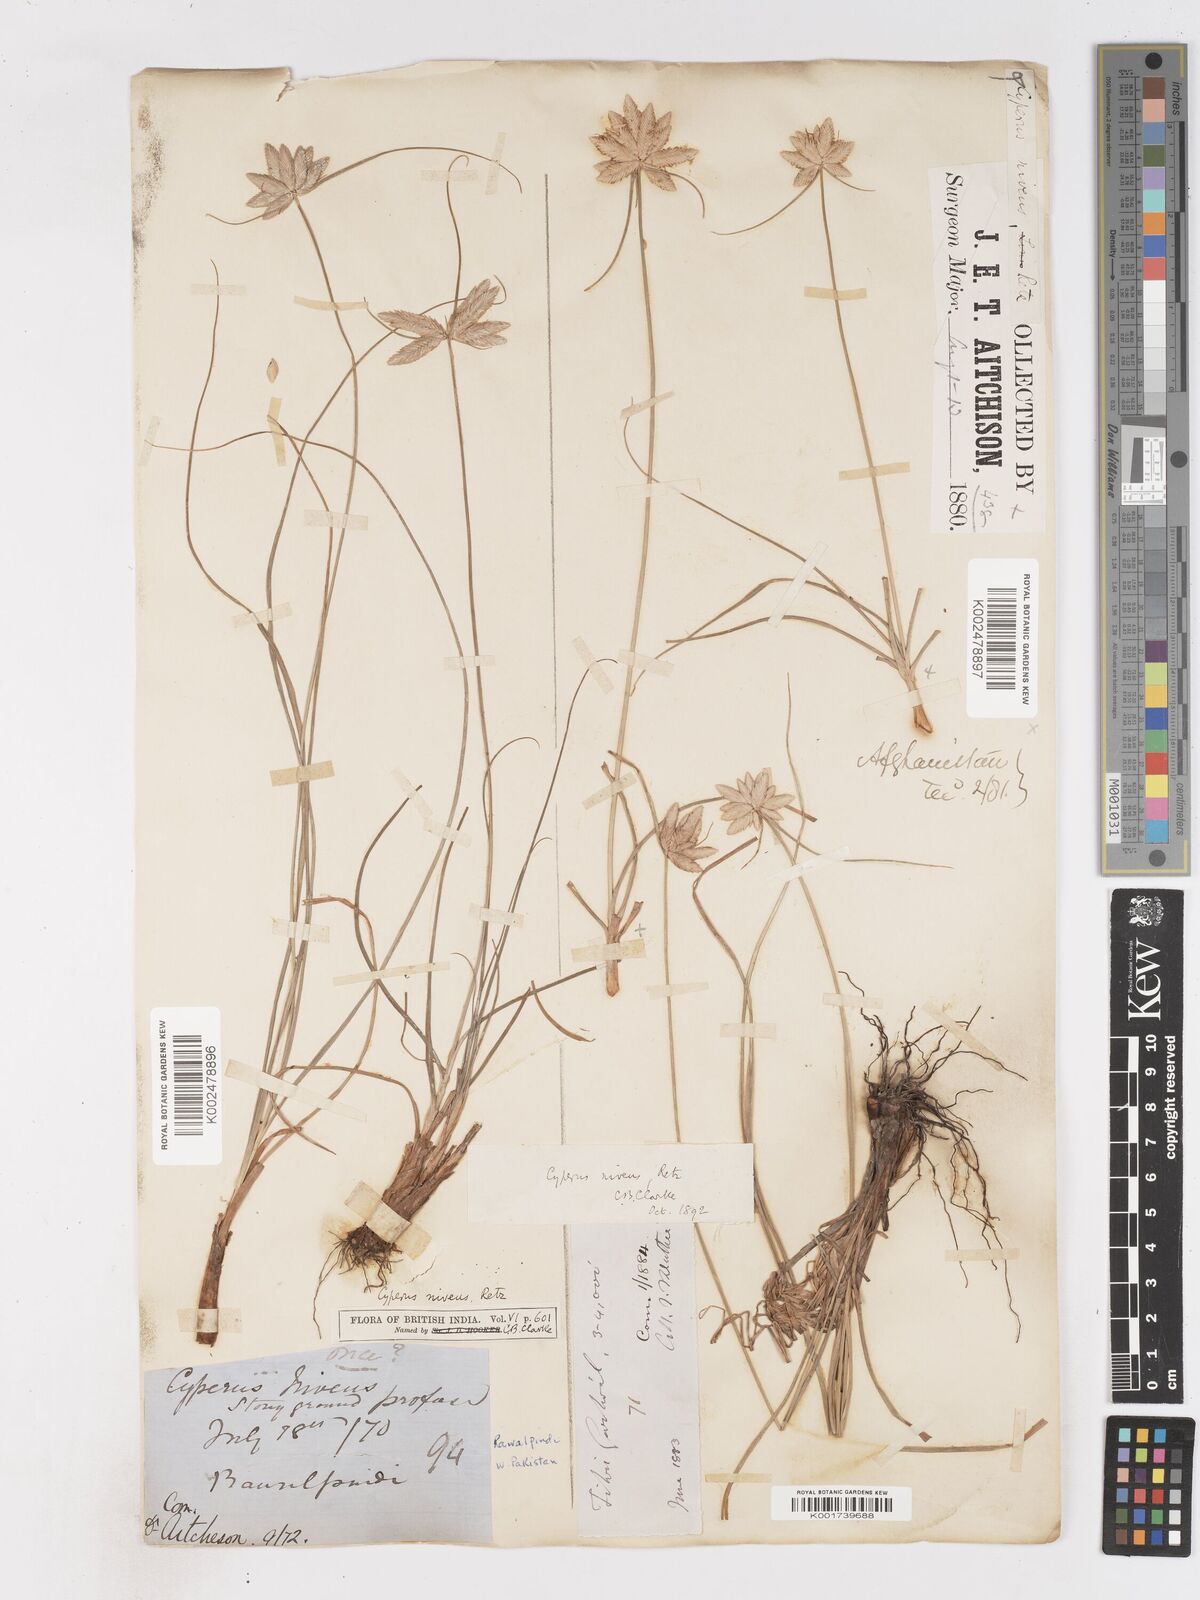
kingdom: Plantae
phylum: Tracheophyta
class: Liliopsida
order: Poales
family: Cyperaceae
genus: Cyperus
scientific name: Cyperus niveus
